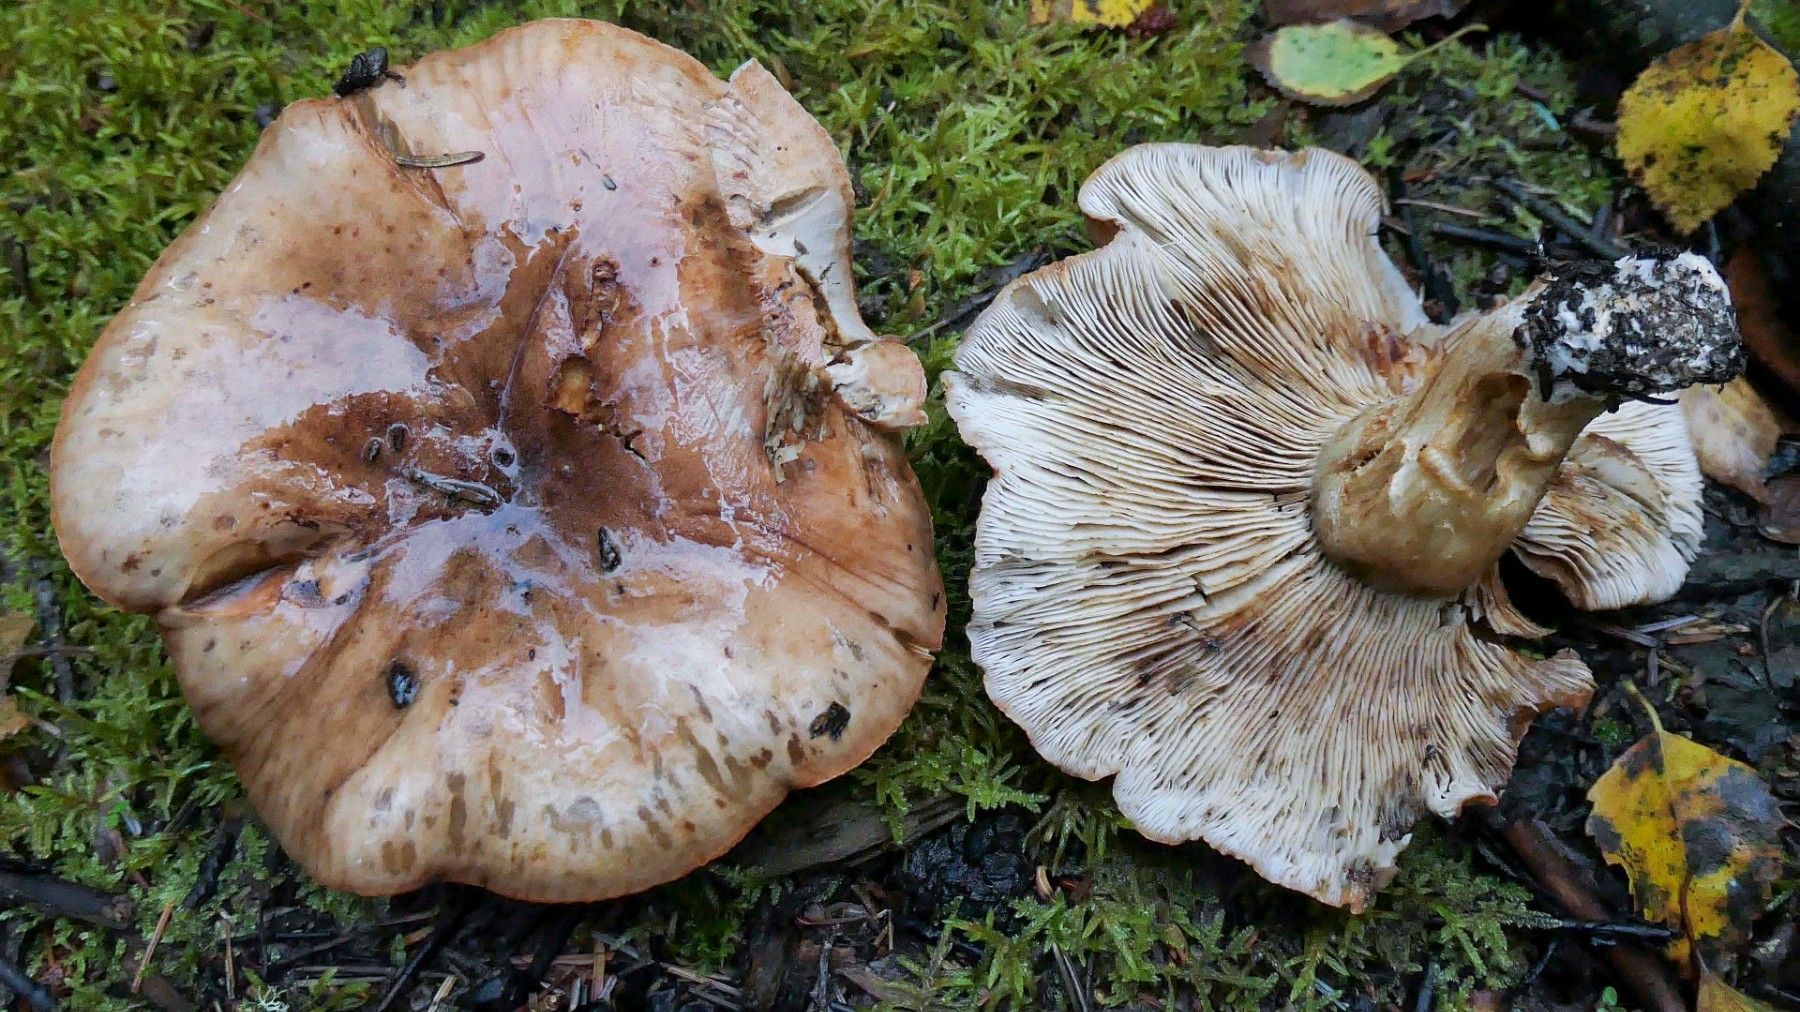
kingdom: Fungi
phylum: Basidiomycota
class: Agaricomycetes
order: Agaricales
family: Tricholomataceae
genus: Tricholoma
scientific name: Tricholoma pessundatum
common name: dråbeplettet ridderhat
